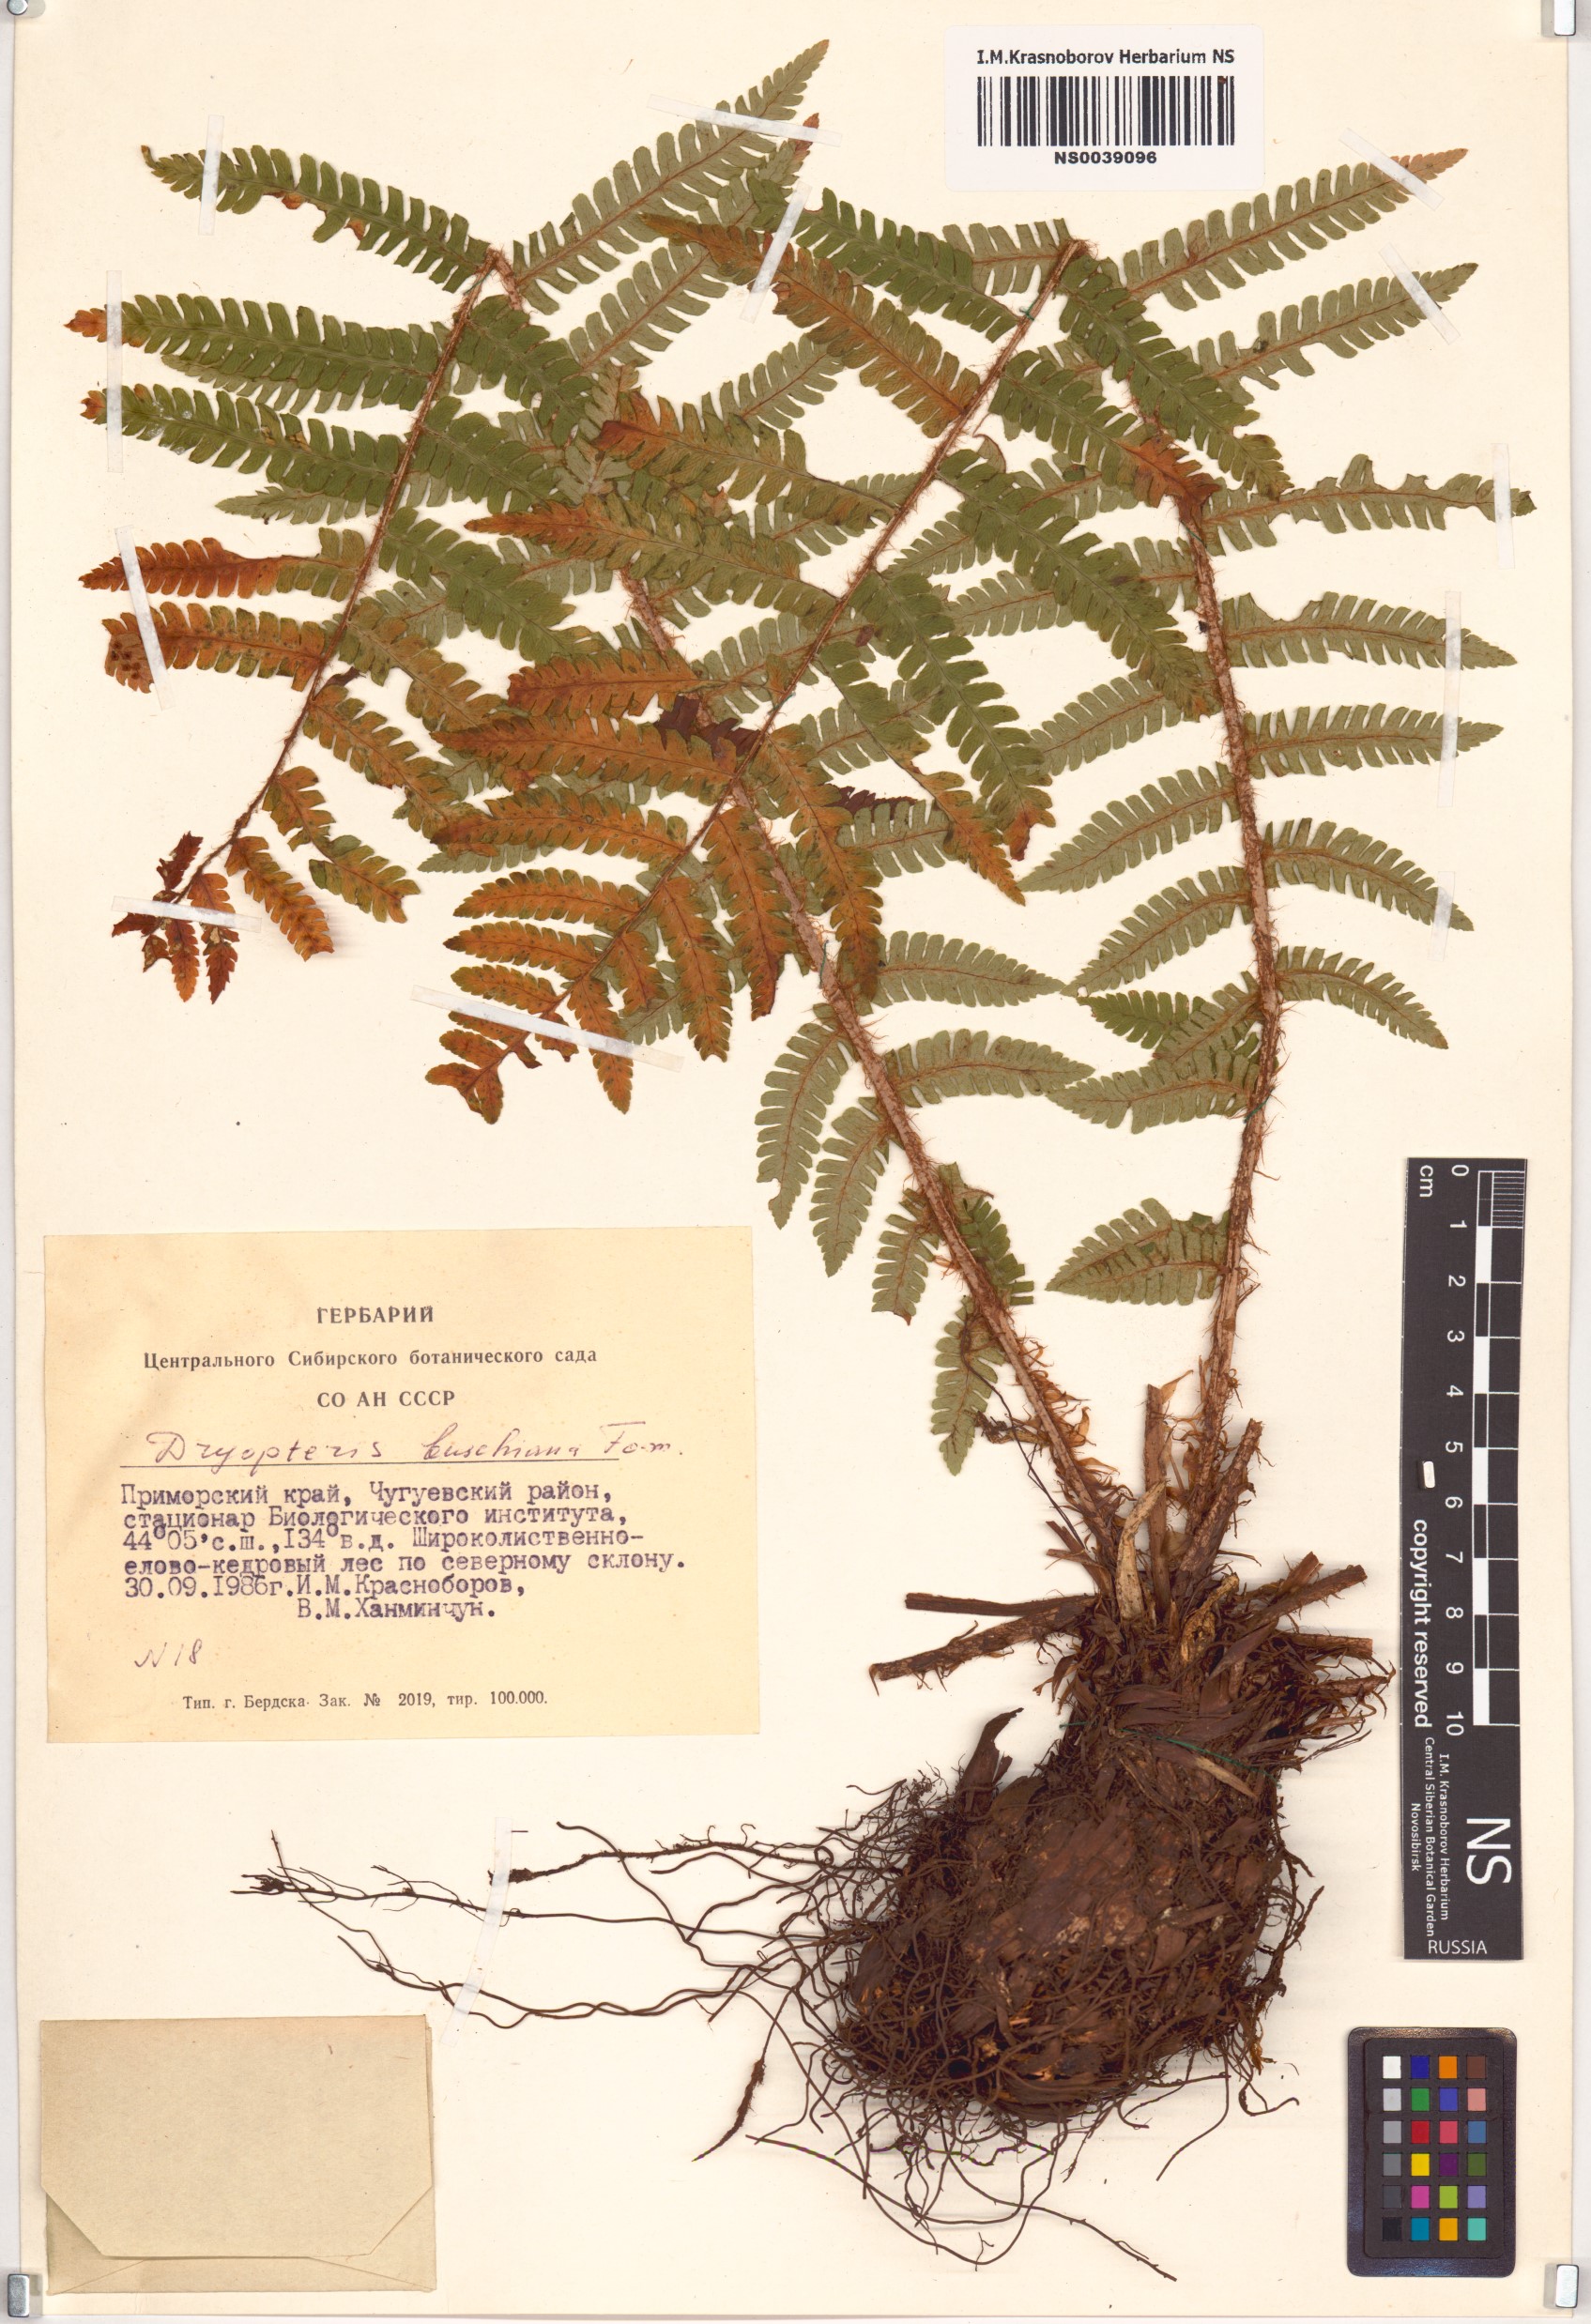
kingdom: Plantae
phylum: Tracheophyta
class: Polypodiopsida
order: Polypodiales
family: Dryopteridaceae
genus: Dryopteris
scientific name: Dryopteris crassirhizoma
